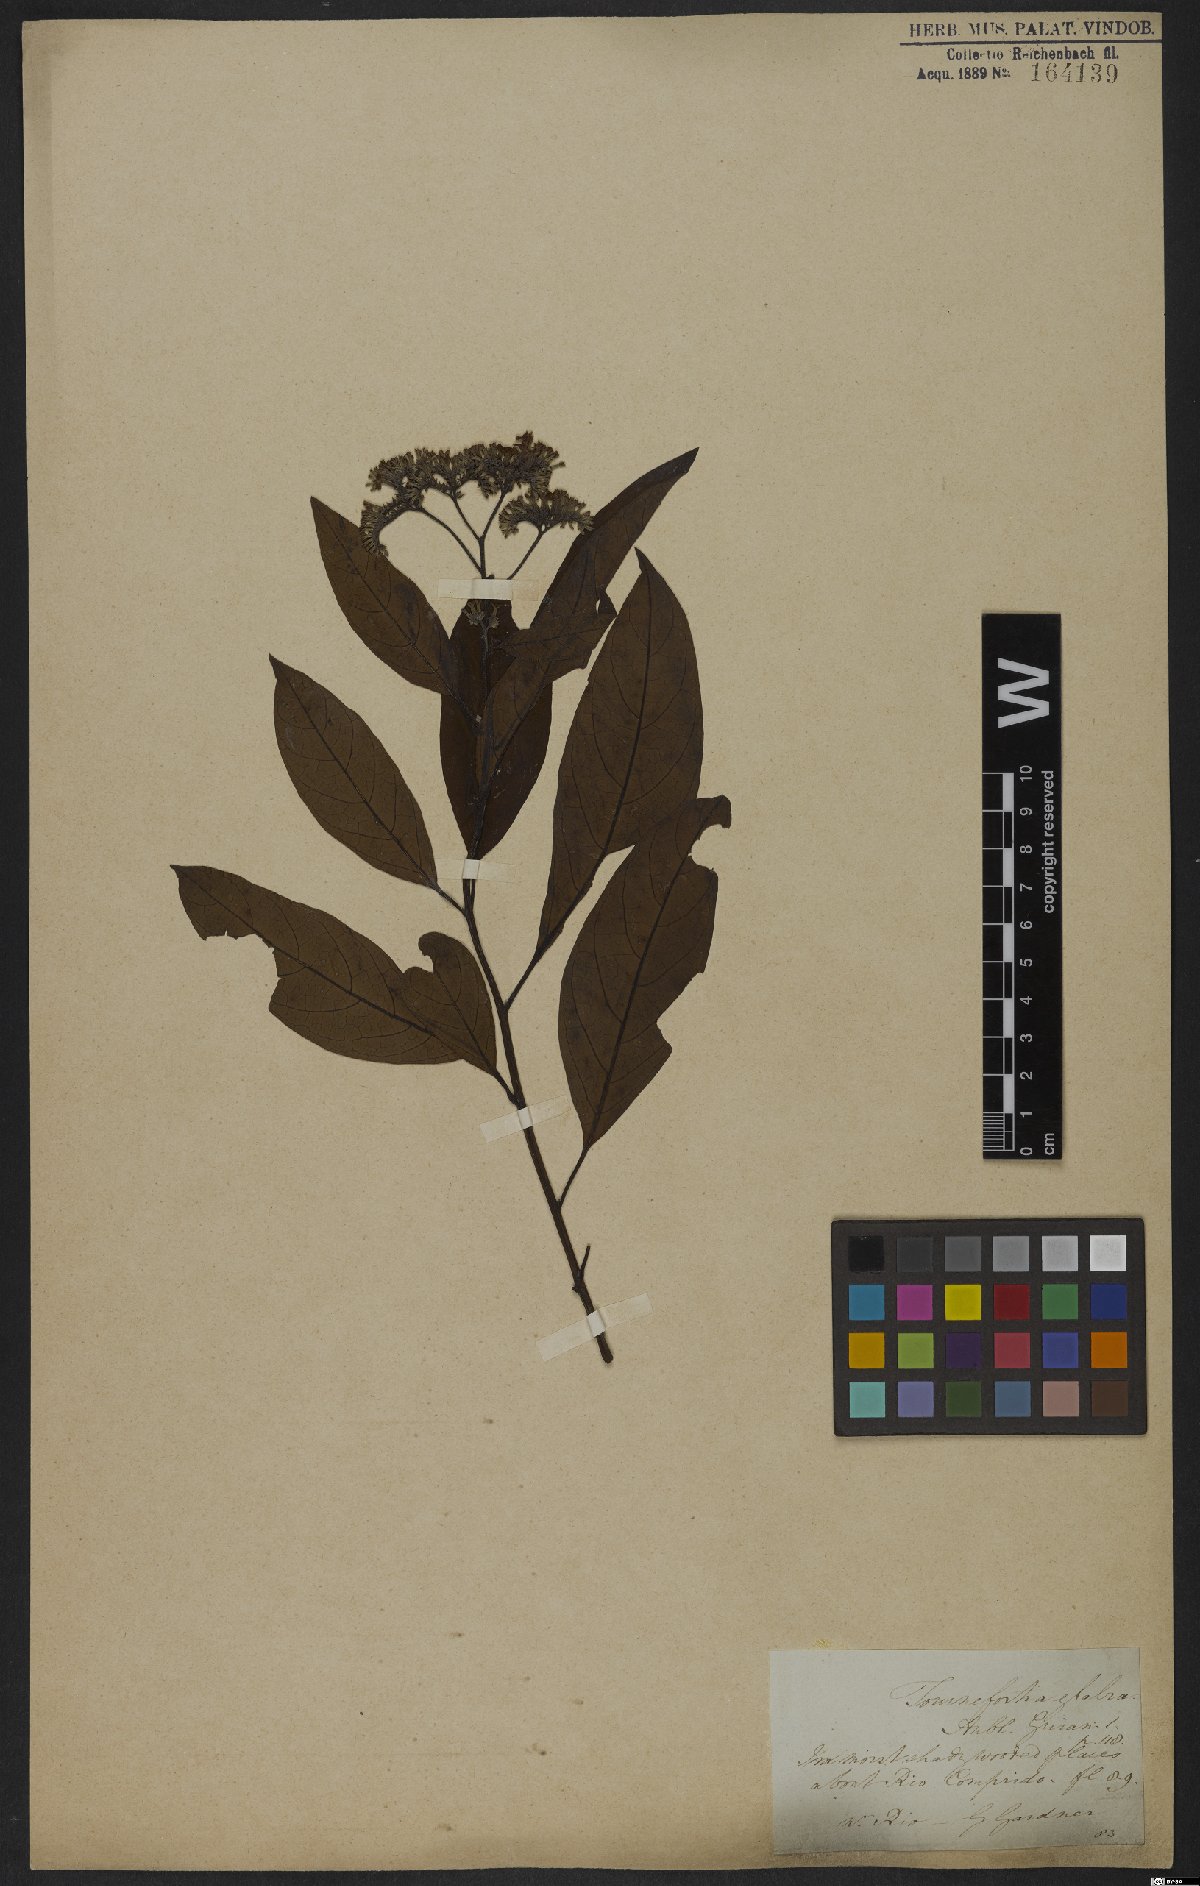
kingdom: Plantae
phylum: Tracheophyta
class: Magnoliopsida
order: Boraginales
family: Heliotropiaceae
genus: Heliotropium
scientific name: Heliotropium glabrum
